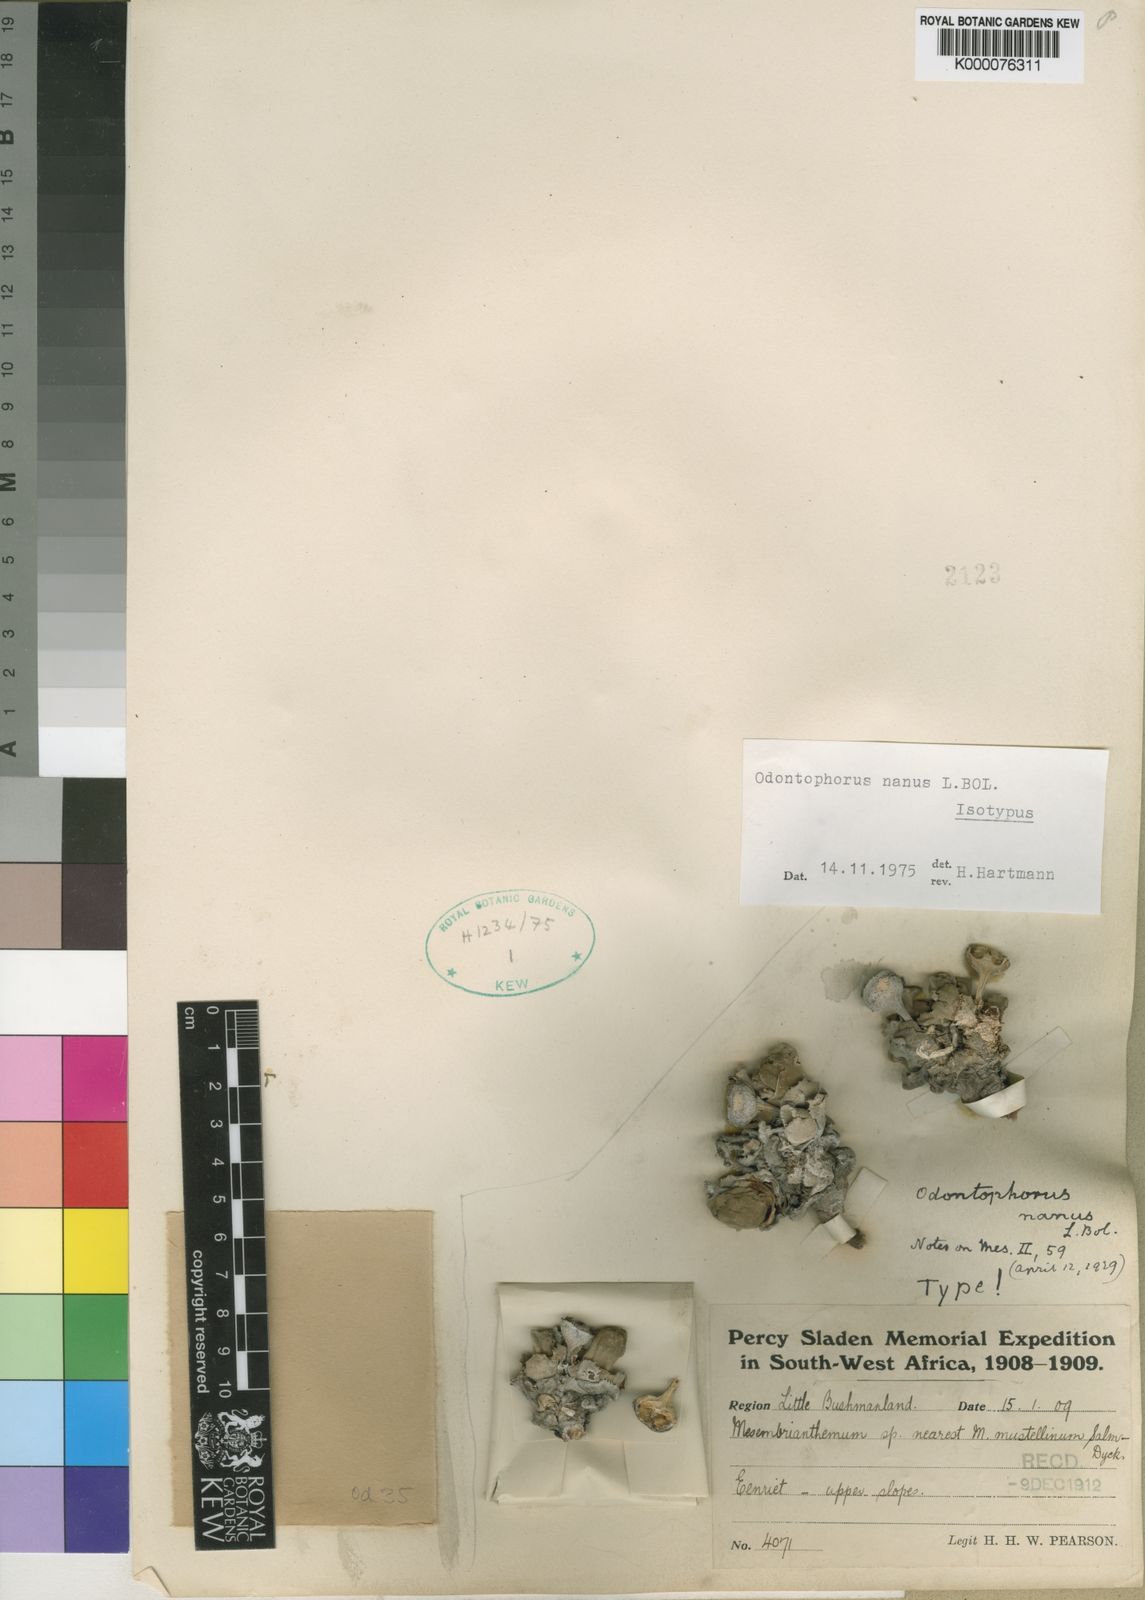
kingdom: Plantae
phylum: Tracheophyta
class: Magnoliopsida
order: Caryophyllales
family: Aizoaceae
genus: Cheiridopsis
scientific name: Cheiridopsis nana
